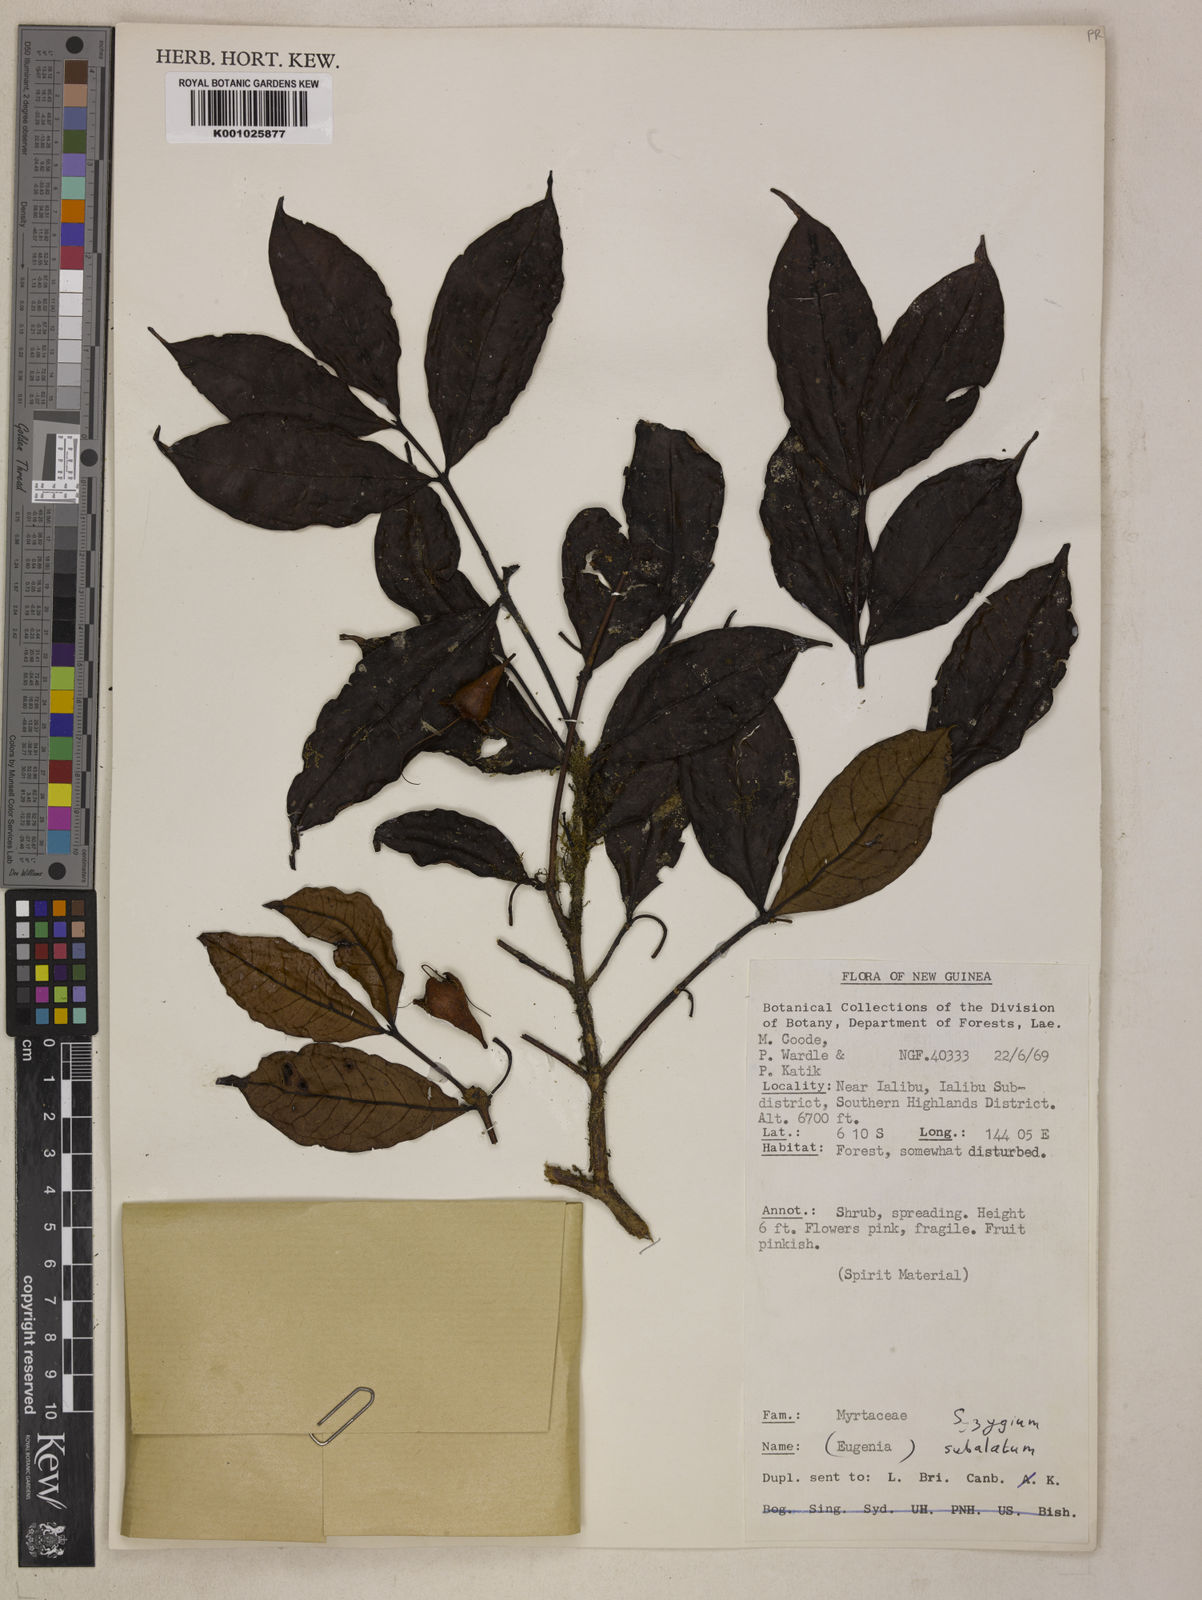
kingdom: Plantae
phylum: Tracheophyta
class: Magnoliopsida
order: Myrtales
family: Myrtaceae
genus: Syzygium
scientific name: Syzygium subalatum
